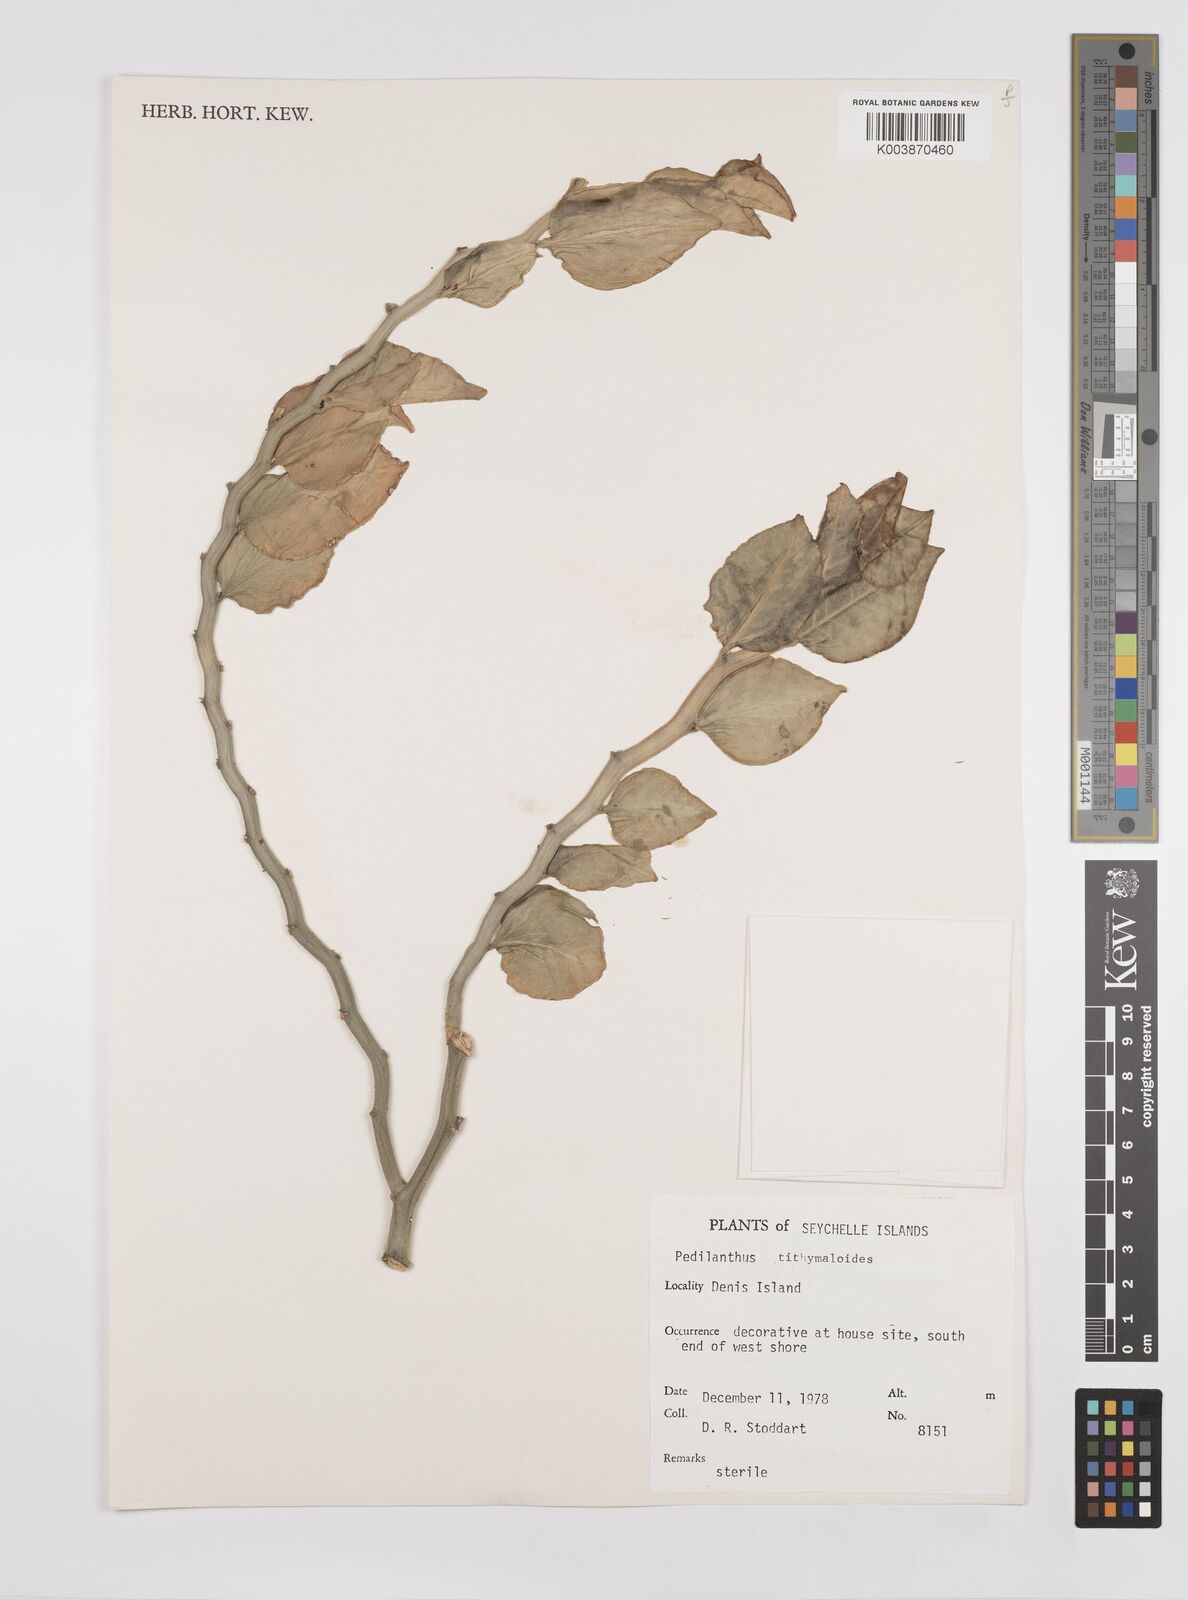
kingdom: Plantae
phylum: Tracheophyta
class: Magnoliopsida
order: Malpighiales
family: Euphorbiaceae
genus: Euphorbia
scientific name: Euphorbia tithymaloides
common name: Slipperplant
